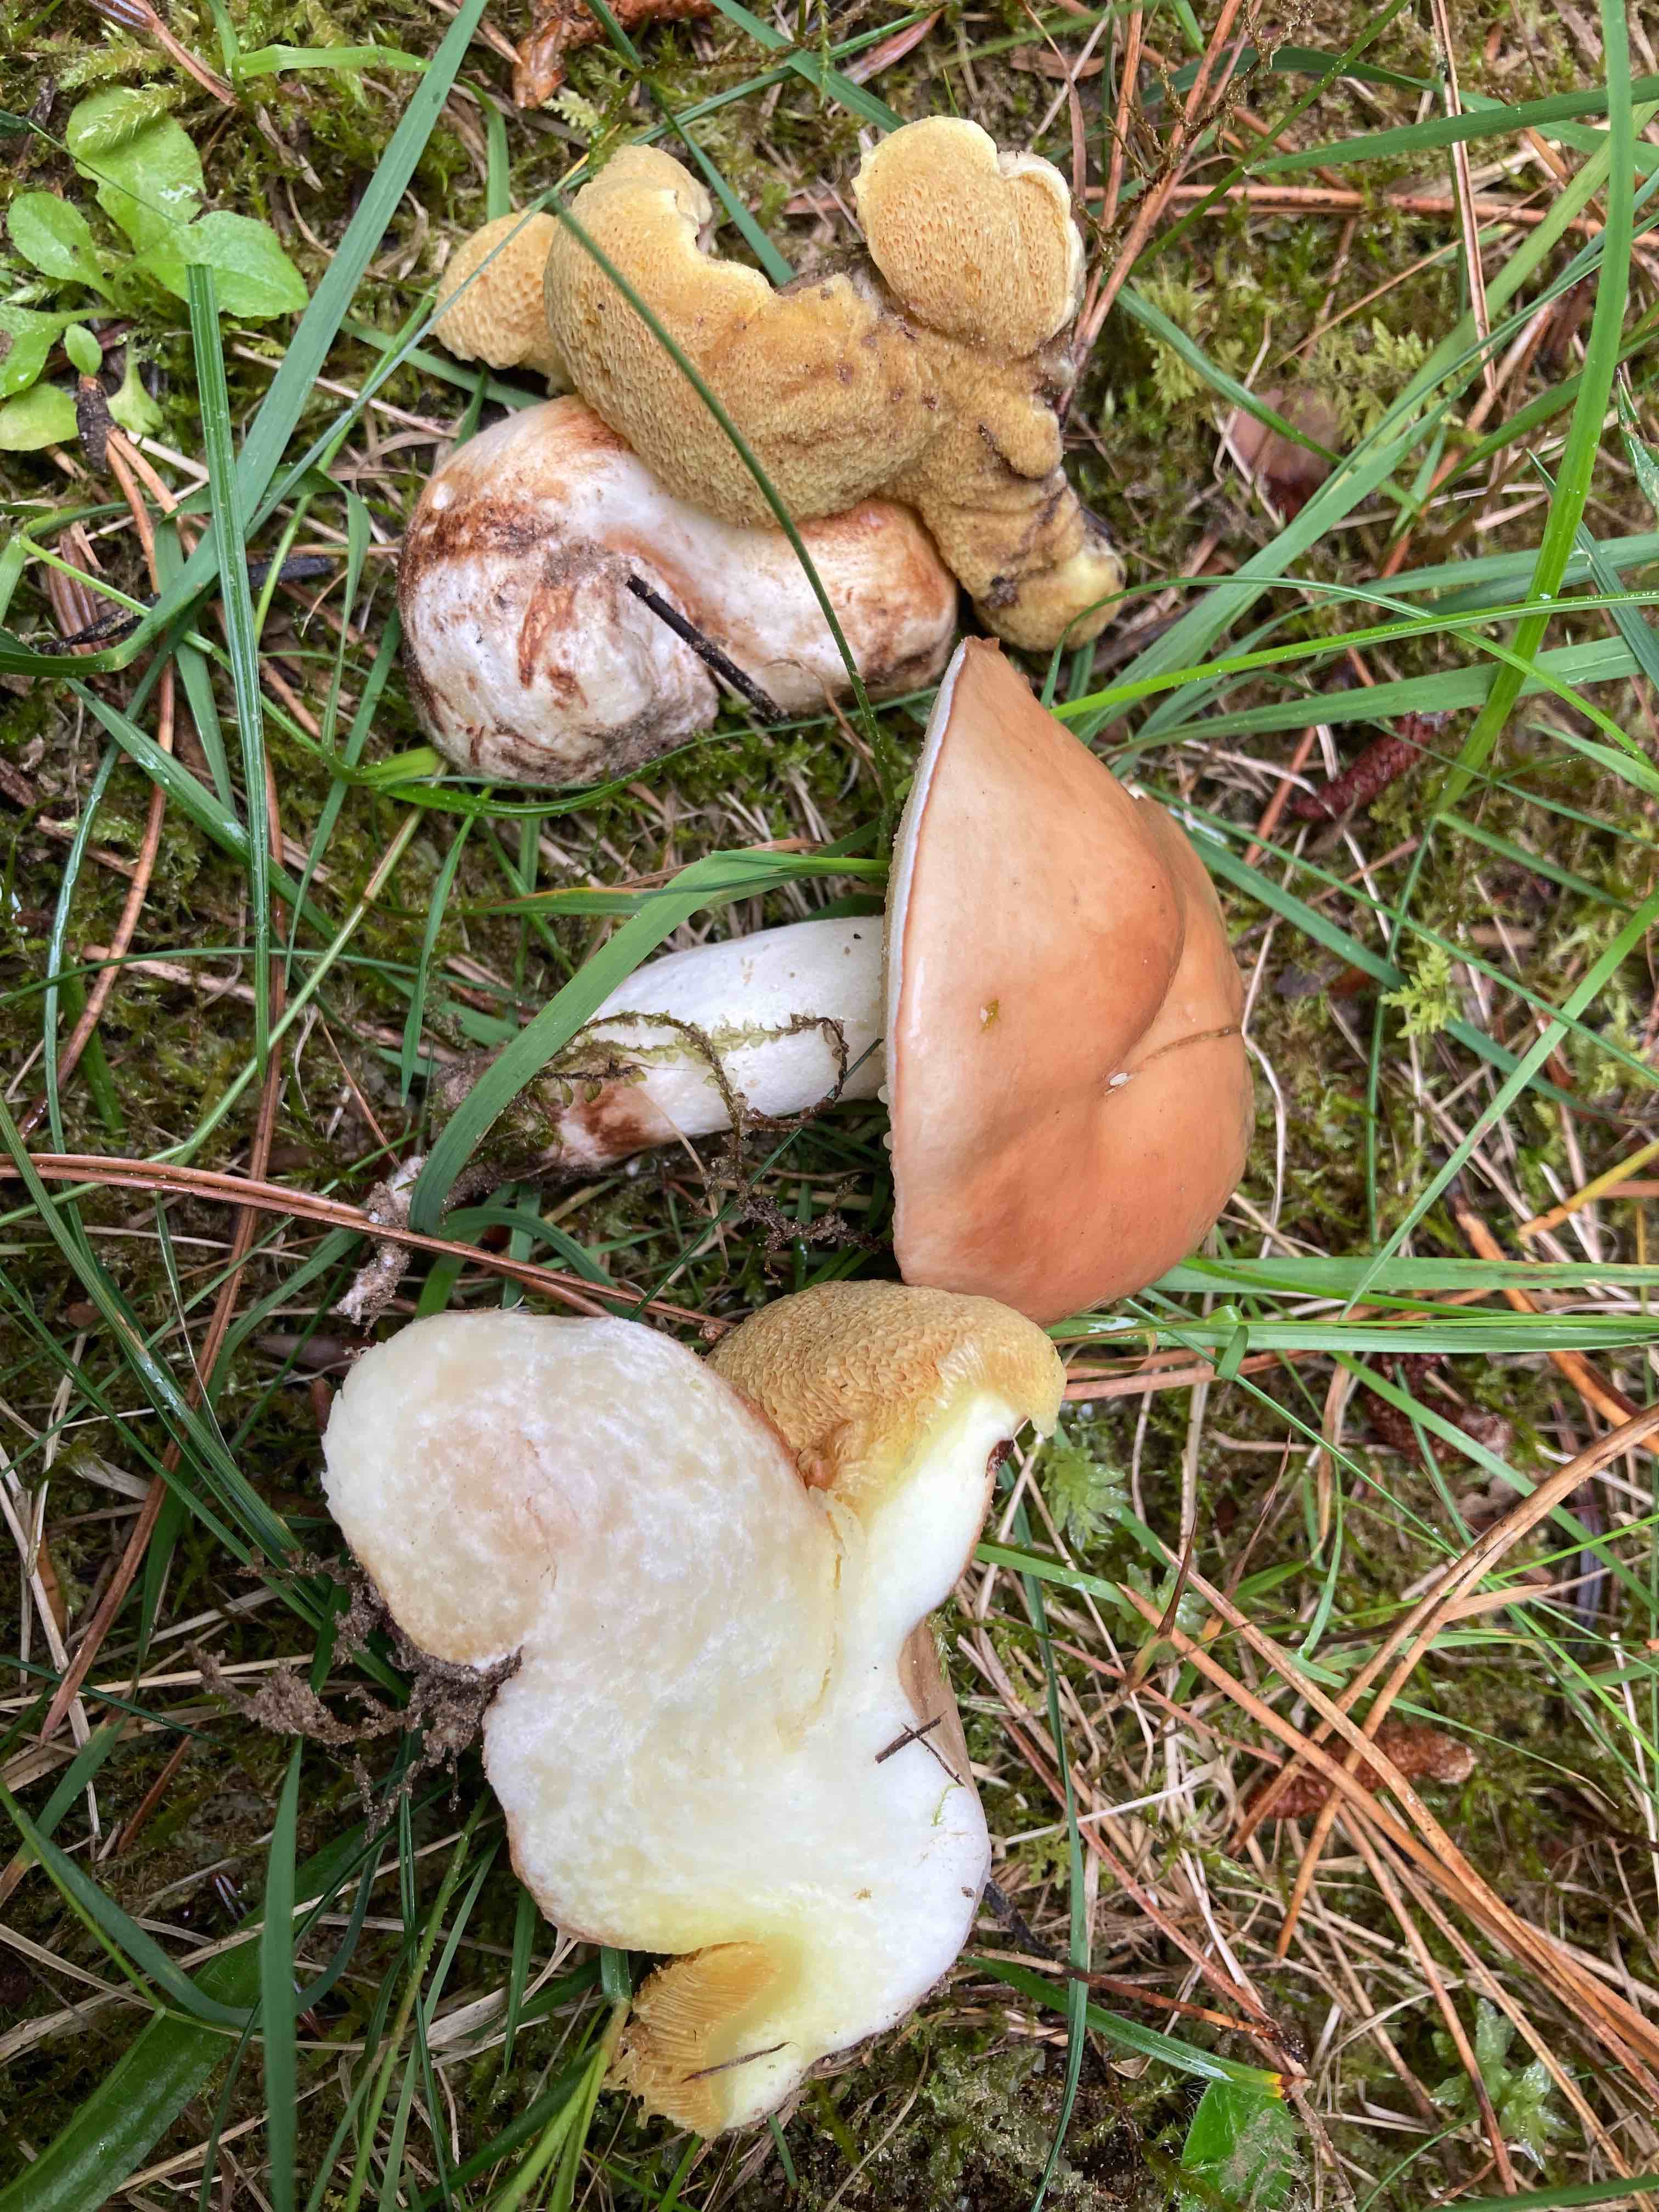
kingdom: Fungi
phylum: Basidiomycota
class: Agaricomycetes
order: Boletales
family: Suillaceae
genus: Suillus
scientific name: Suillus granulatus
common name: kornet slimrørhat
